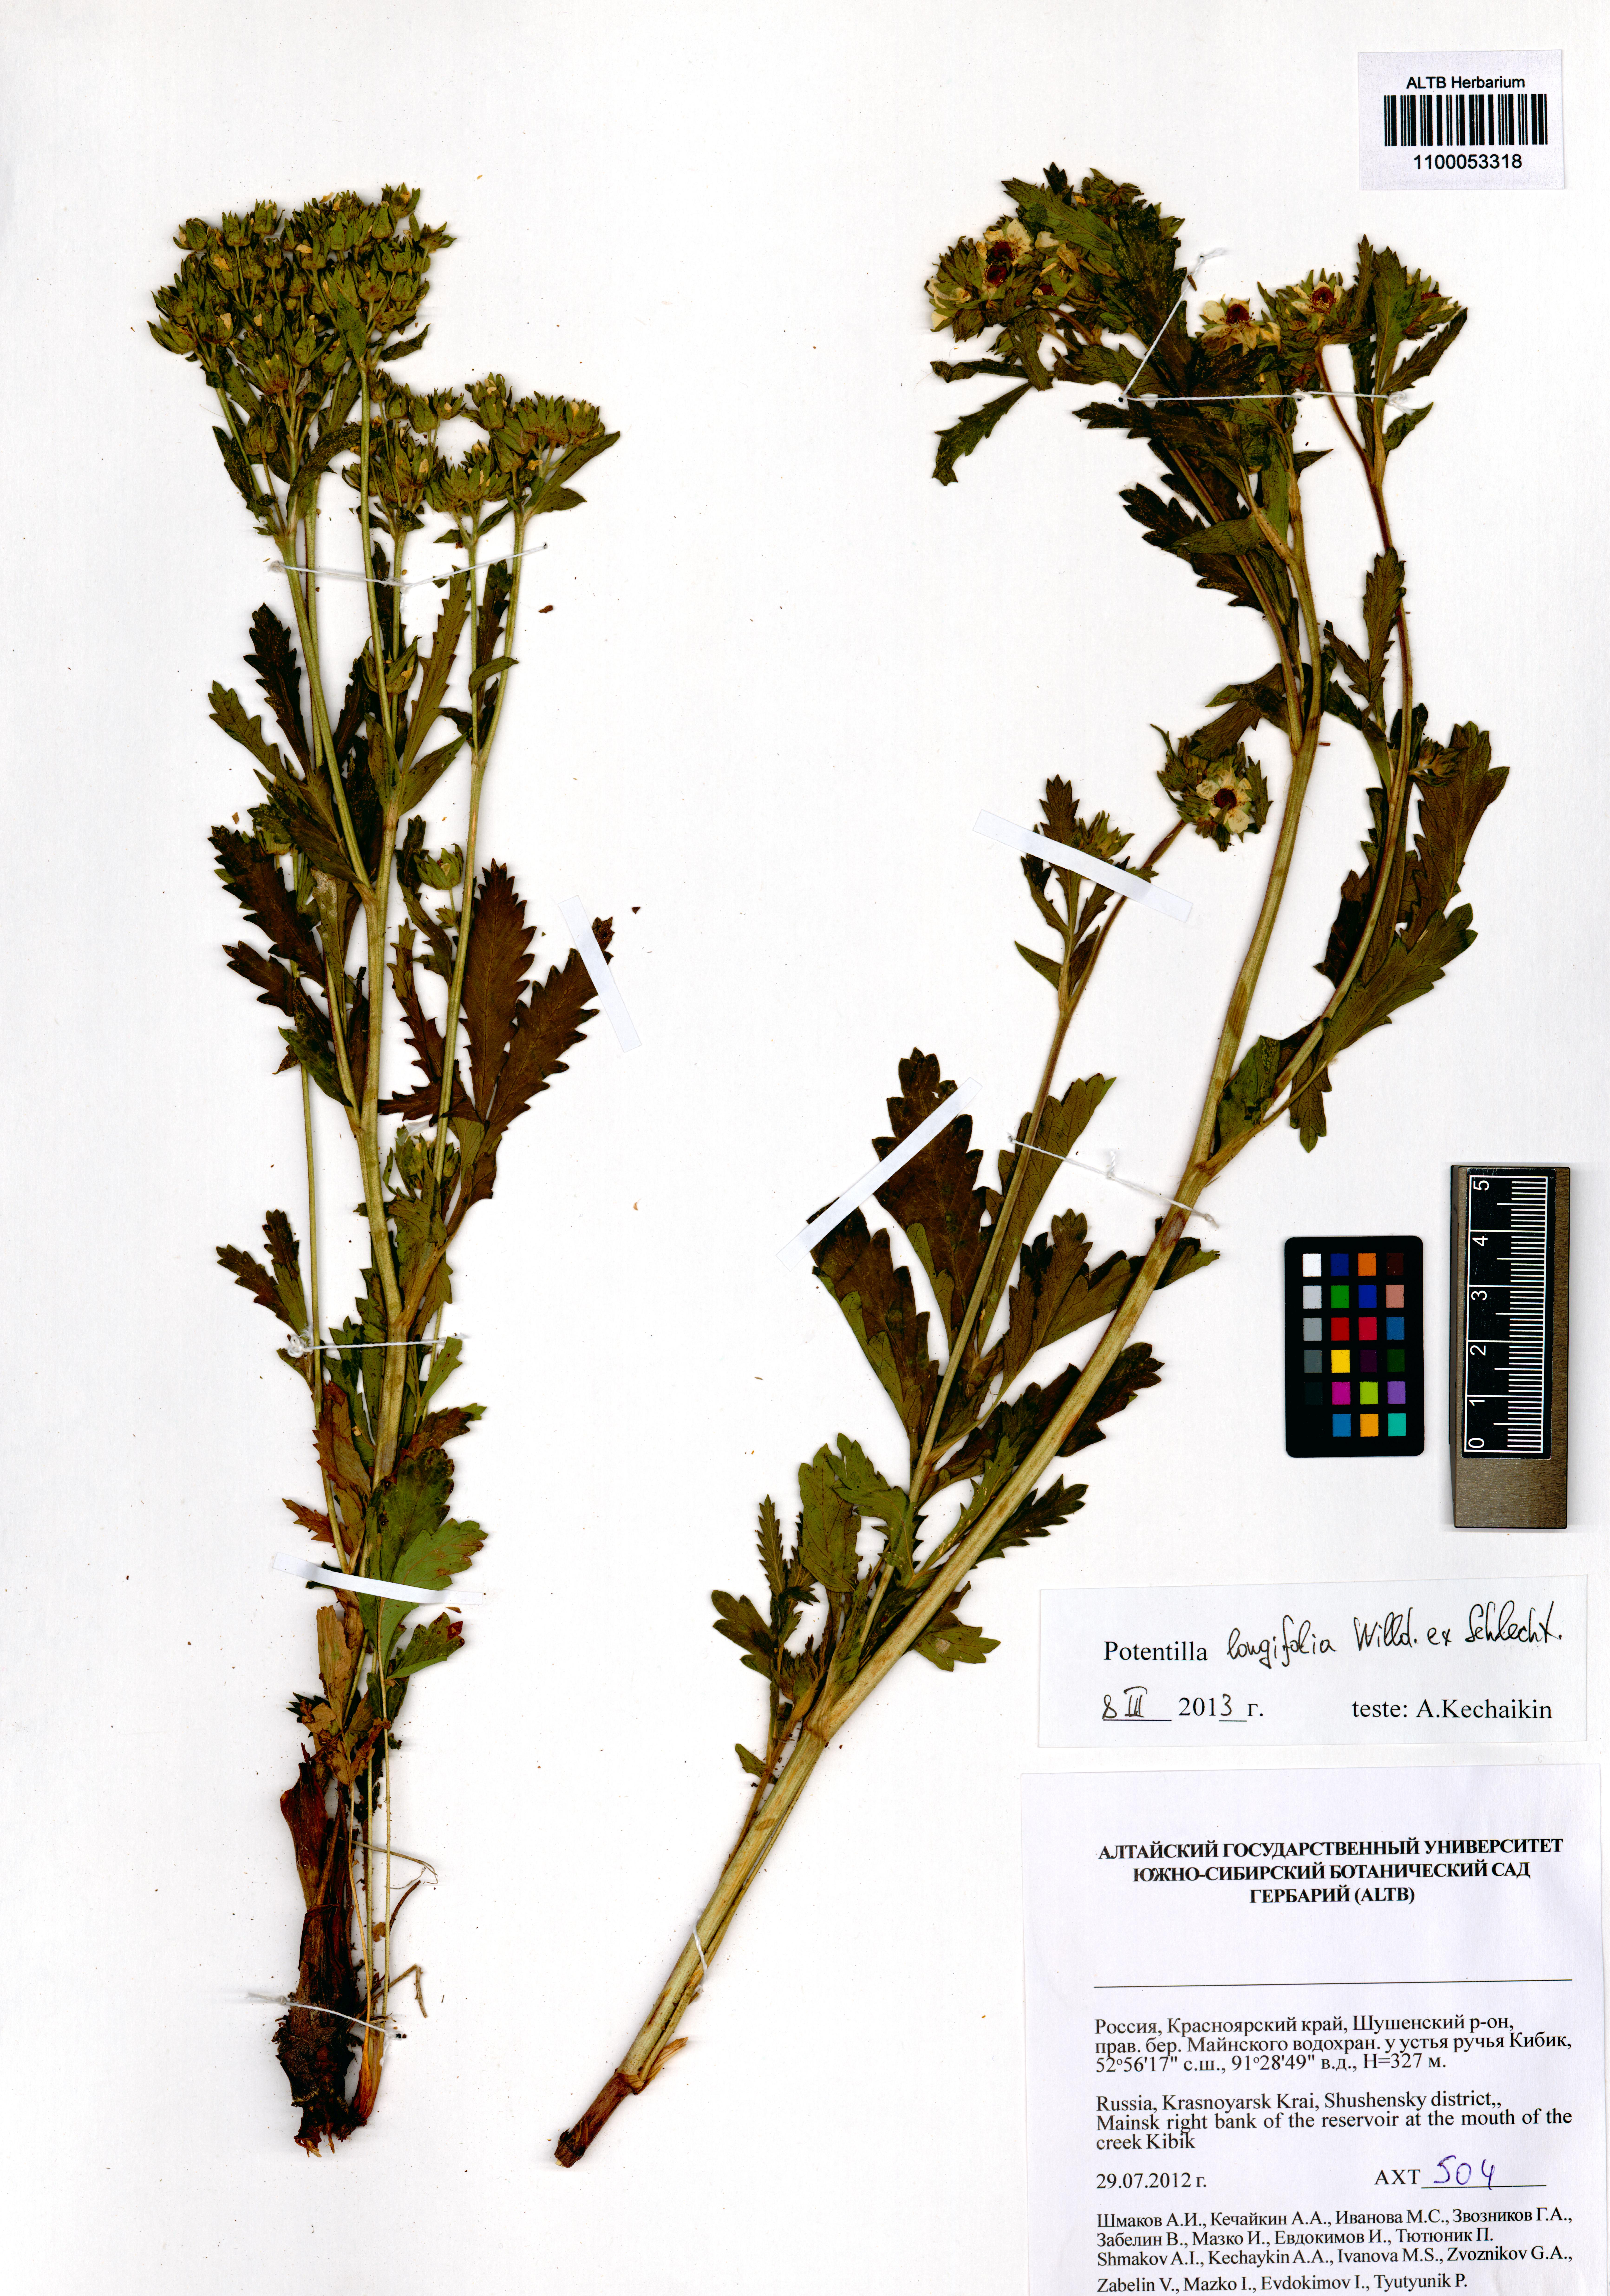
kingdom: Plantae
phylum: Tracheophyta
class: Magnoliopsida
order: Rosales
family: Rosaceae
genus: Potentilla
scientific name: Potentilla longifolia
